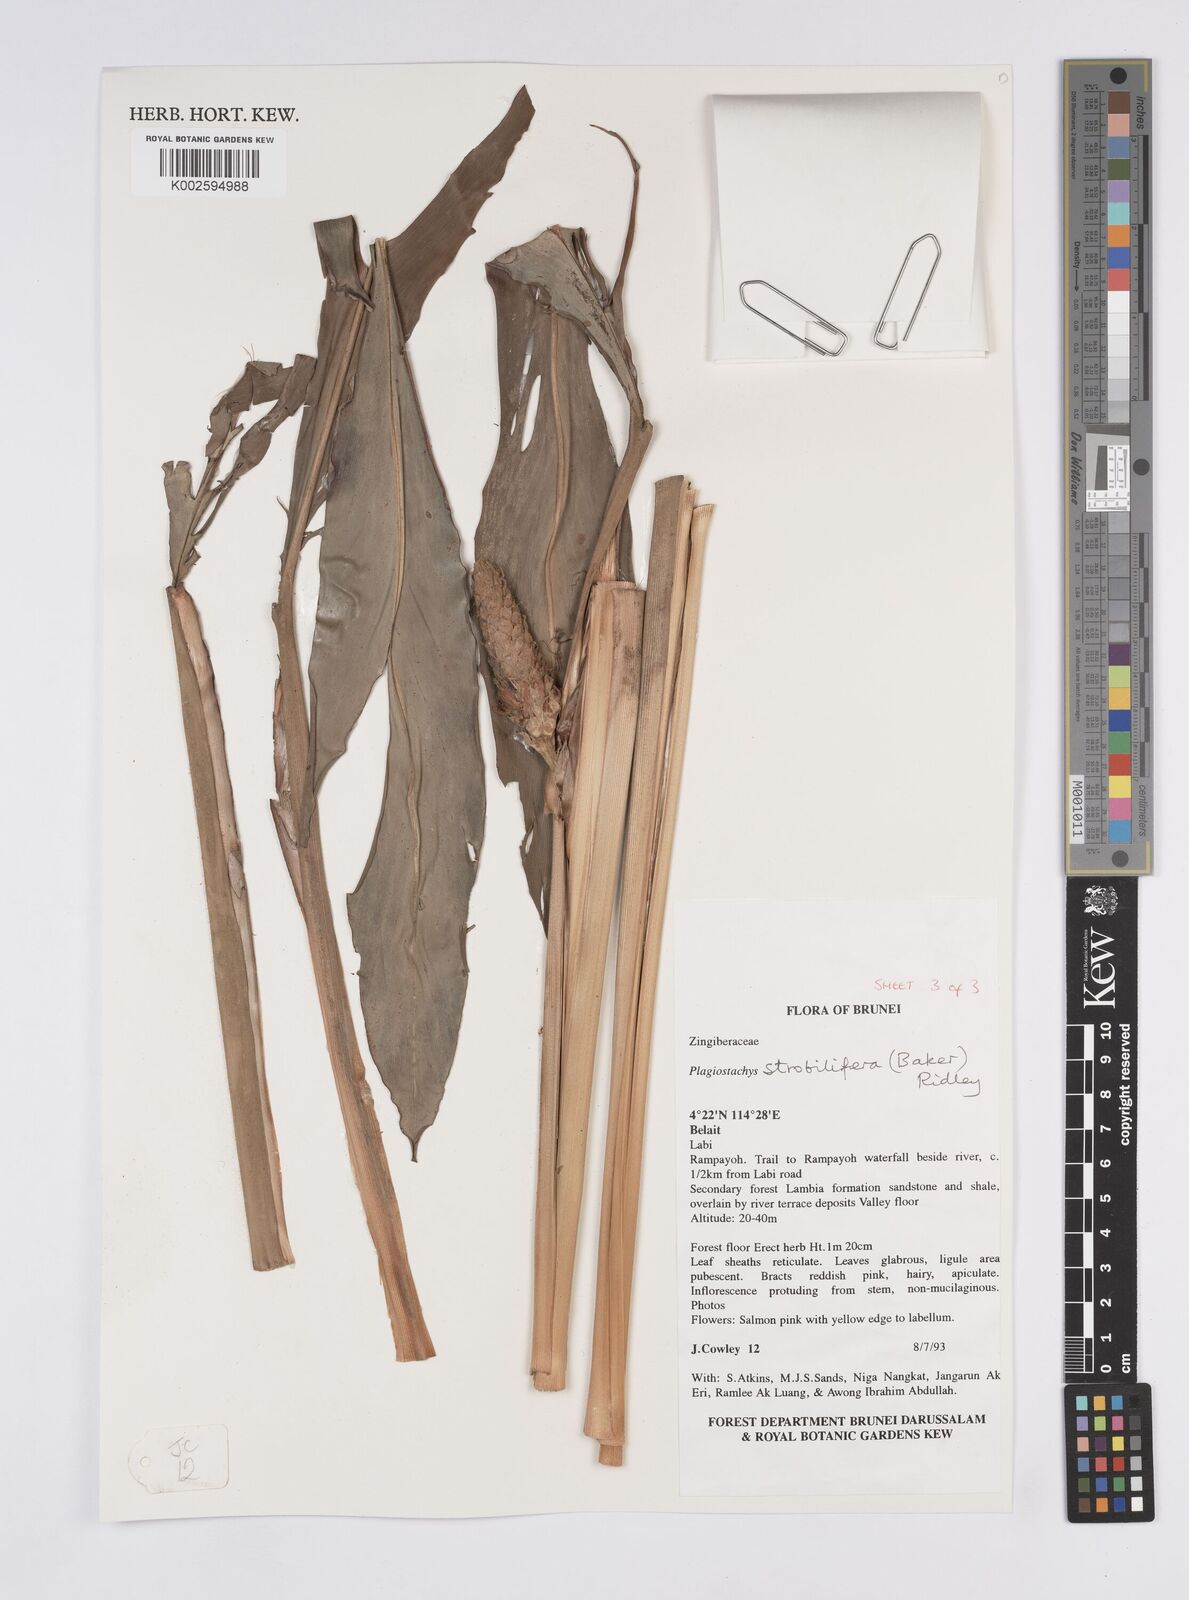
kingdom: Plantae
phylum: Tracheophyta
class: Liliopsida
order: Zingiberales
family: Zingiberaceae
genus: Plagiostachys
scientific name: Plagiostachys strobilifera
